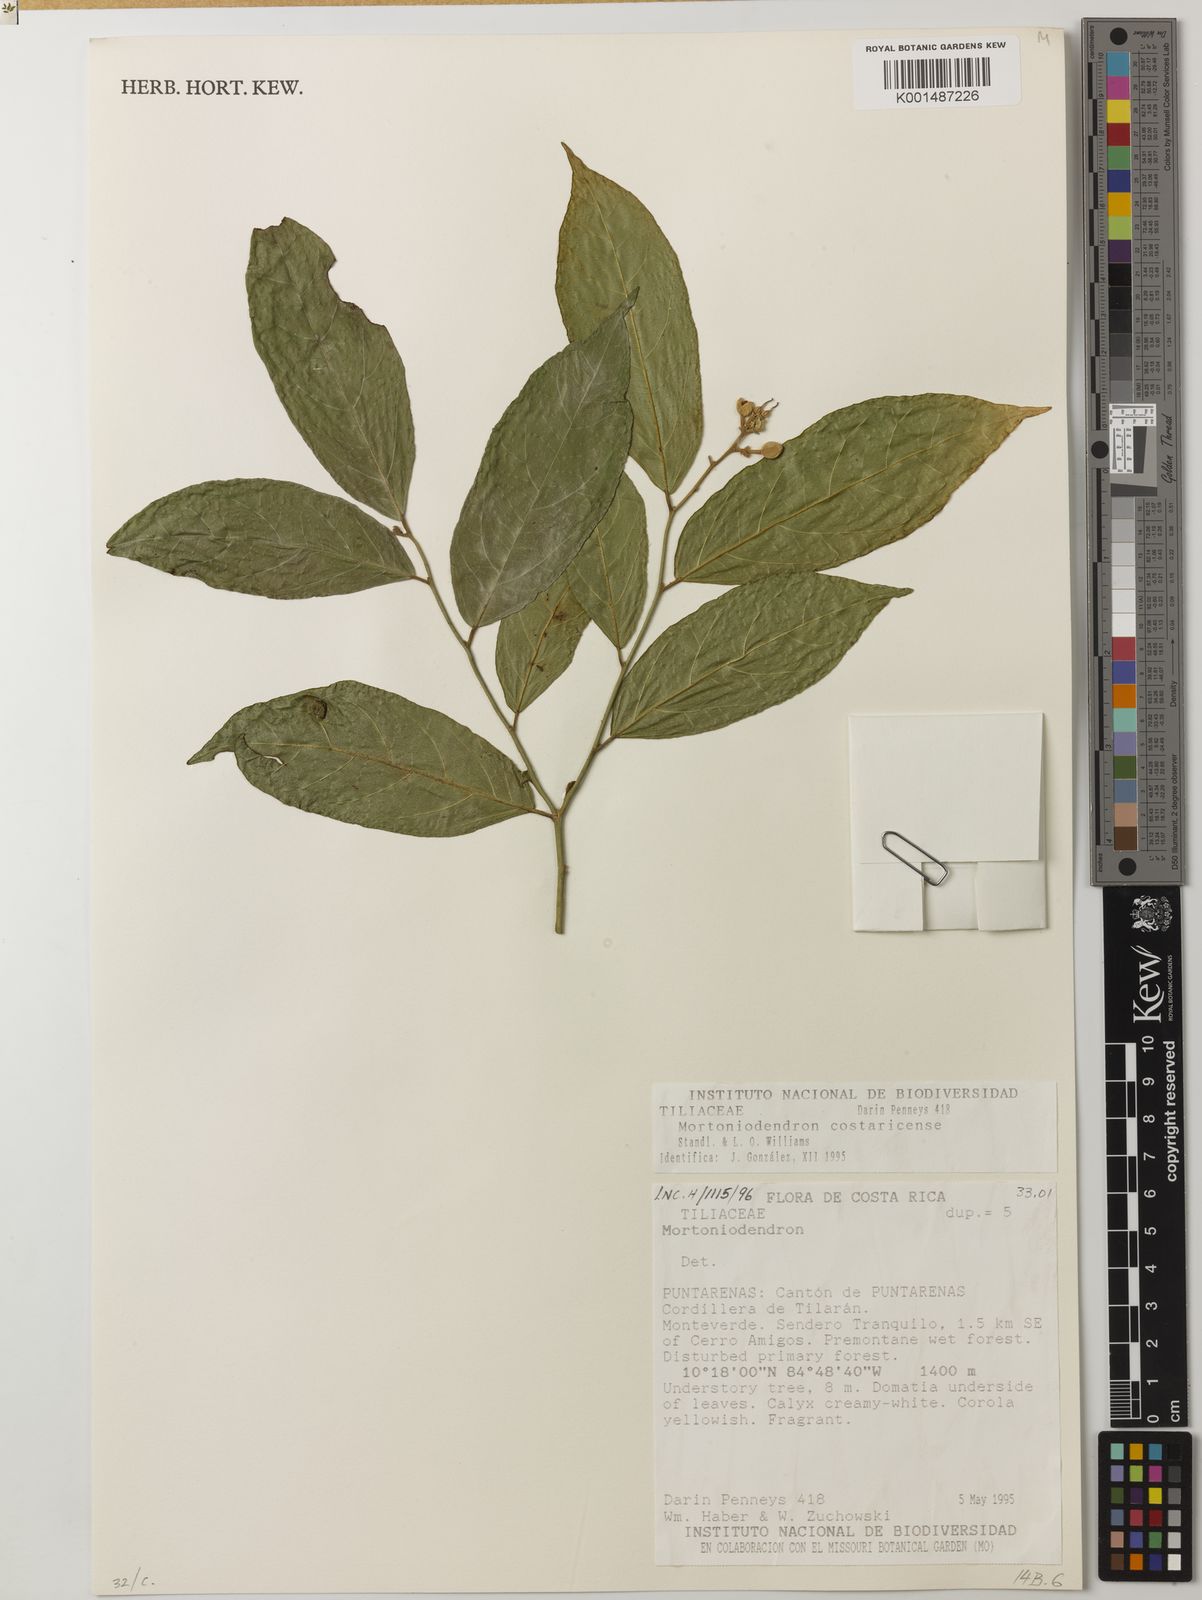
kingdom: Plantae
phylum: Tracheophyta
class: Magnoliopsida
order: Malvales
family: Malvaceae
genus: Mortoniodendron
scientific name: Mortoniodendron costaricense
